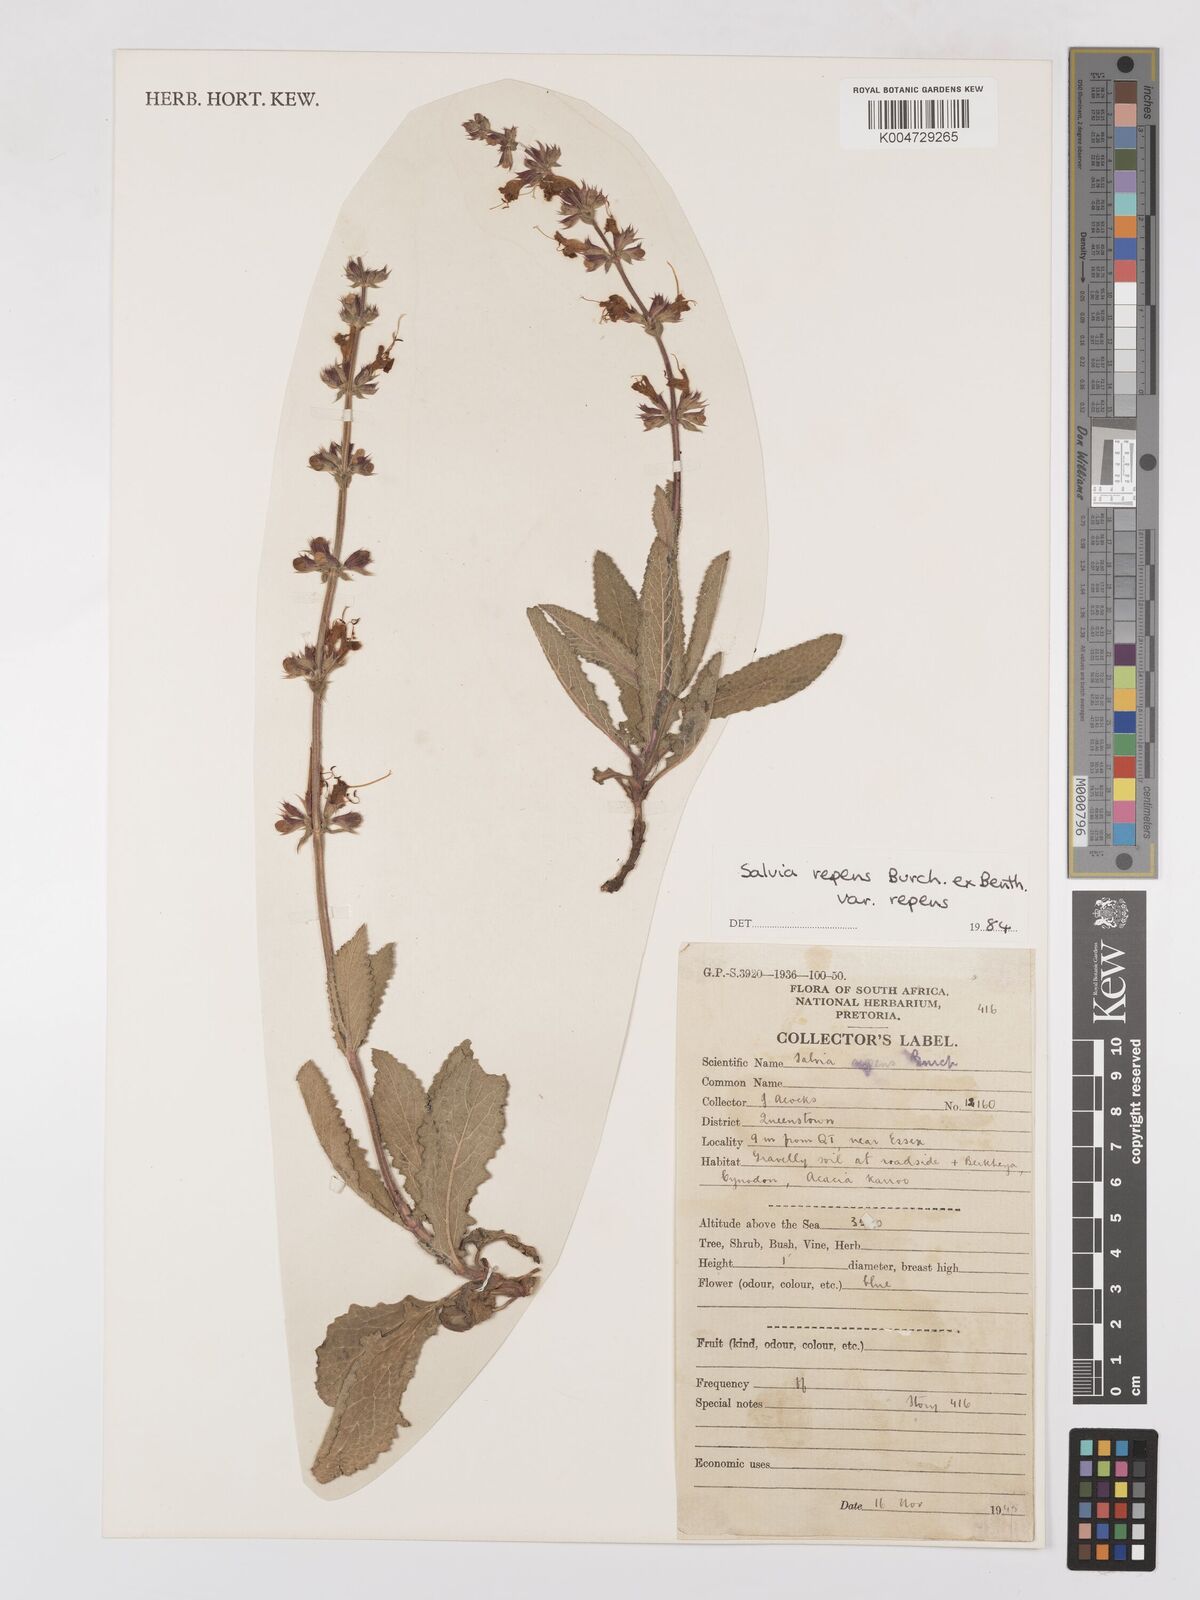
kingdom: Plantae
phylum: Tracheophyta
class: Magnoliopsida
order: Lamiales
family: Lamiaceae
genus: Salvia
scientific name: Salvia repens
